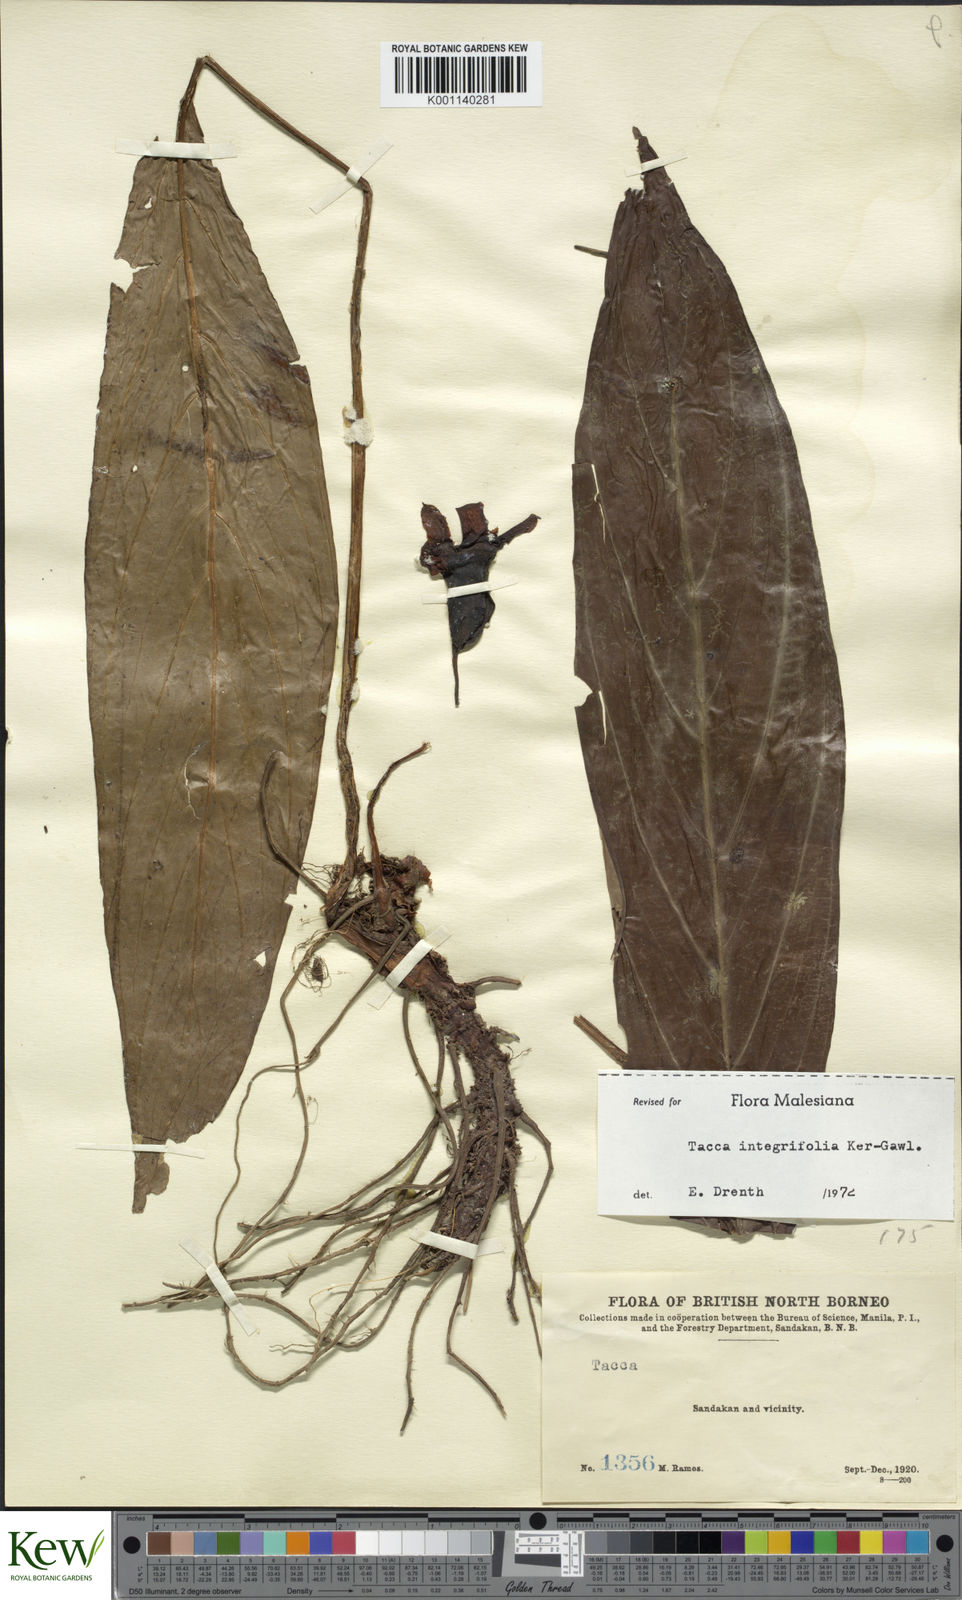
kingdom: Plantae
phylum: Tracheophyta
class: Liliopsida
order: Dioscoreales
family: Dioscoreaceae
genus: Tacca
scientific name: Tacca integrifolia
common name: Batplant
